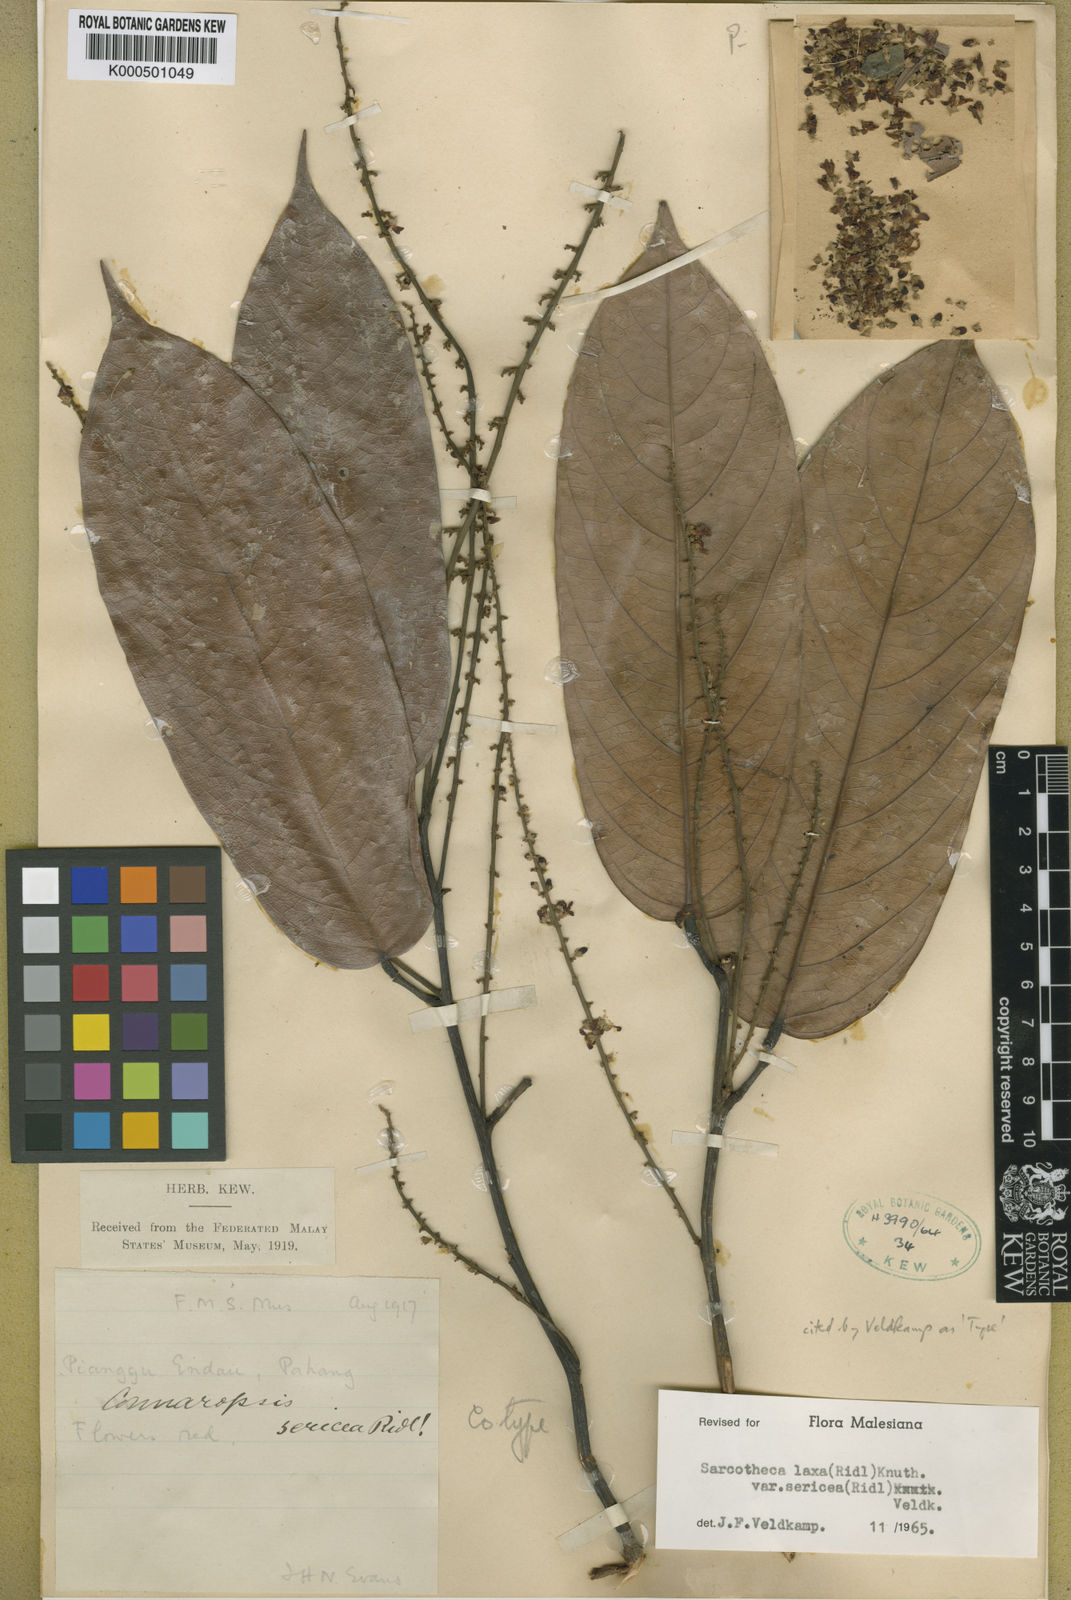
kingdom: Plantae
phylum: Tracheophyta
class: Magnoliopsida
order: Oxalidales
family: Oxalidaceae
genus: Sarcotheca
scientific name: Sarcotheca laxa
